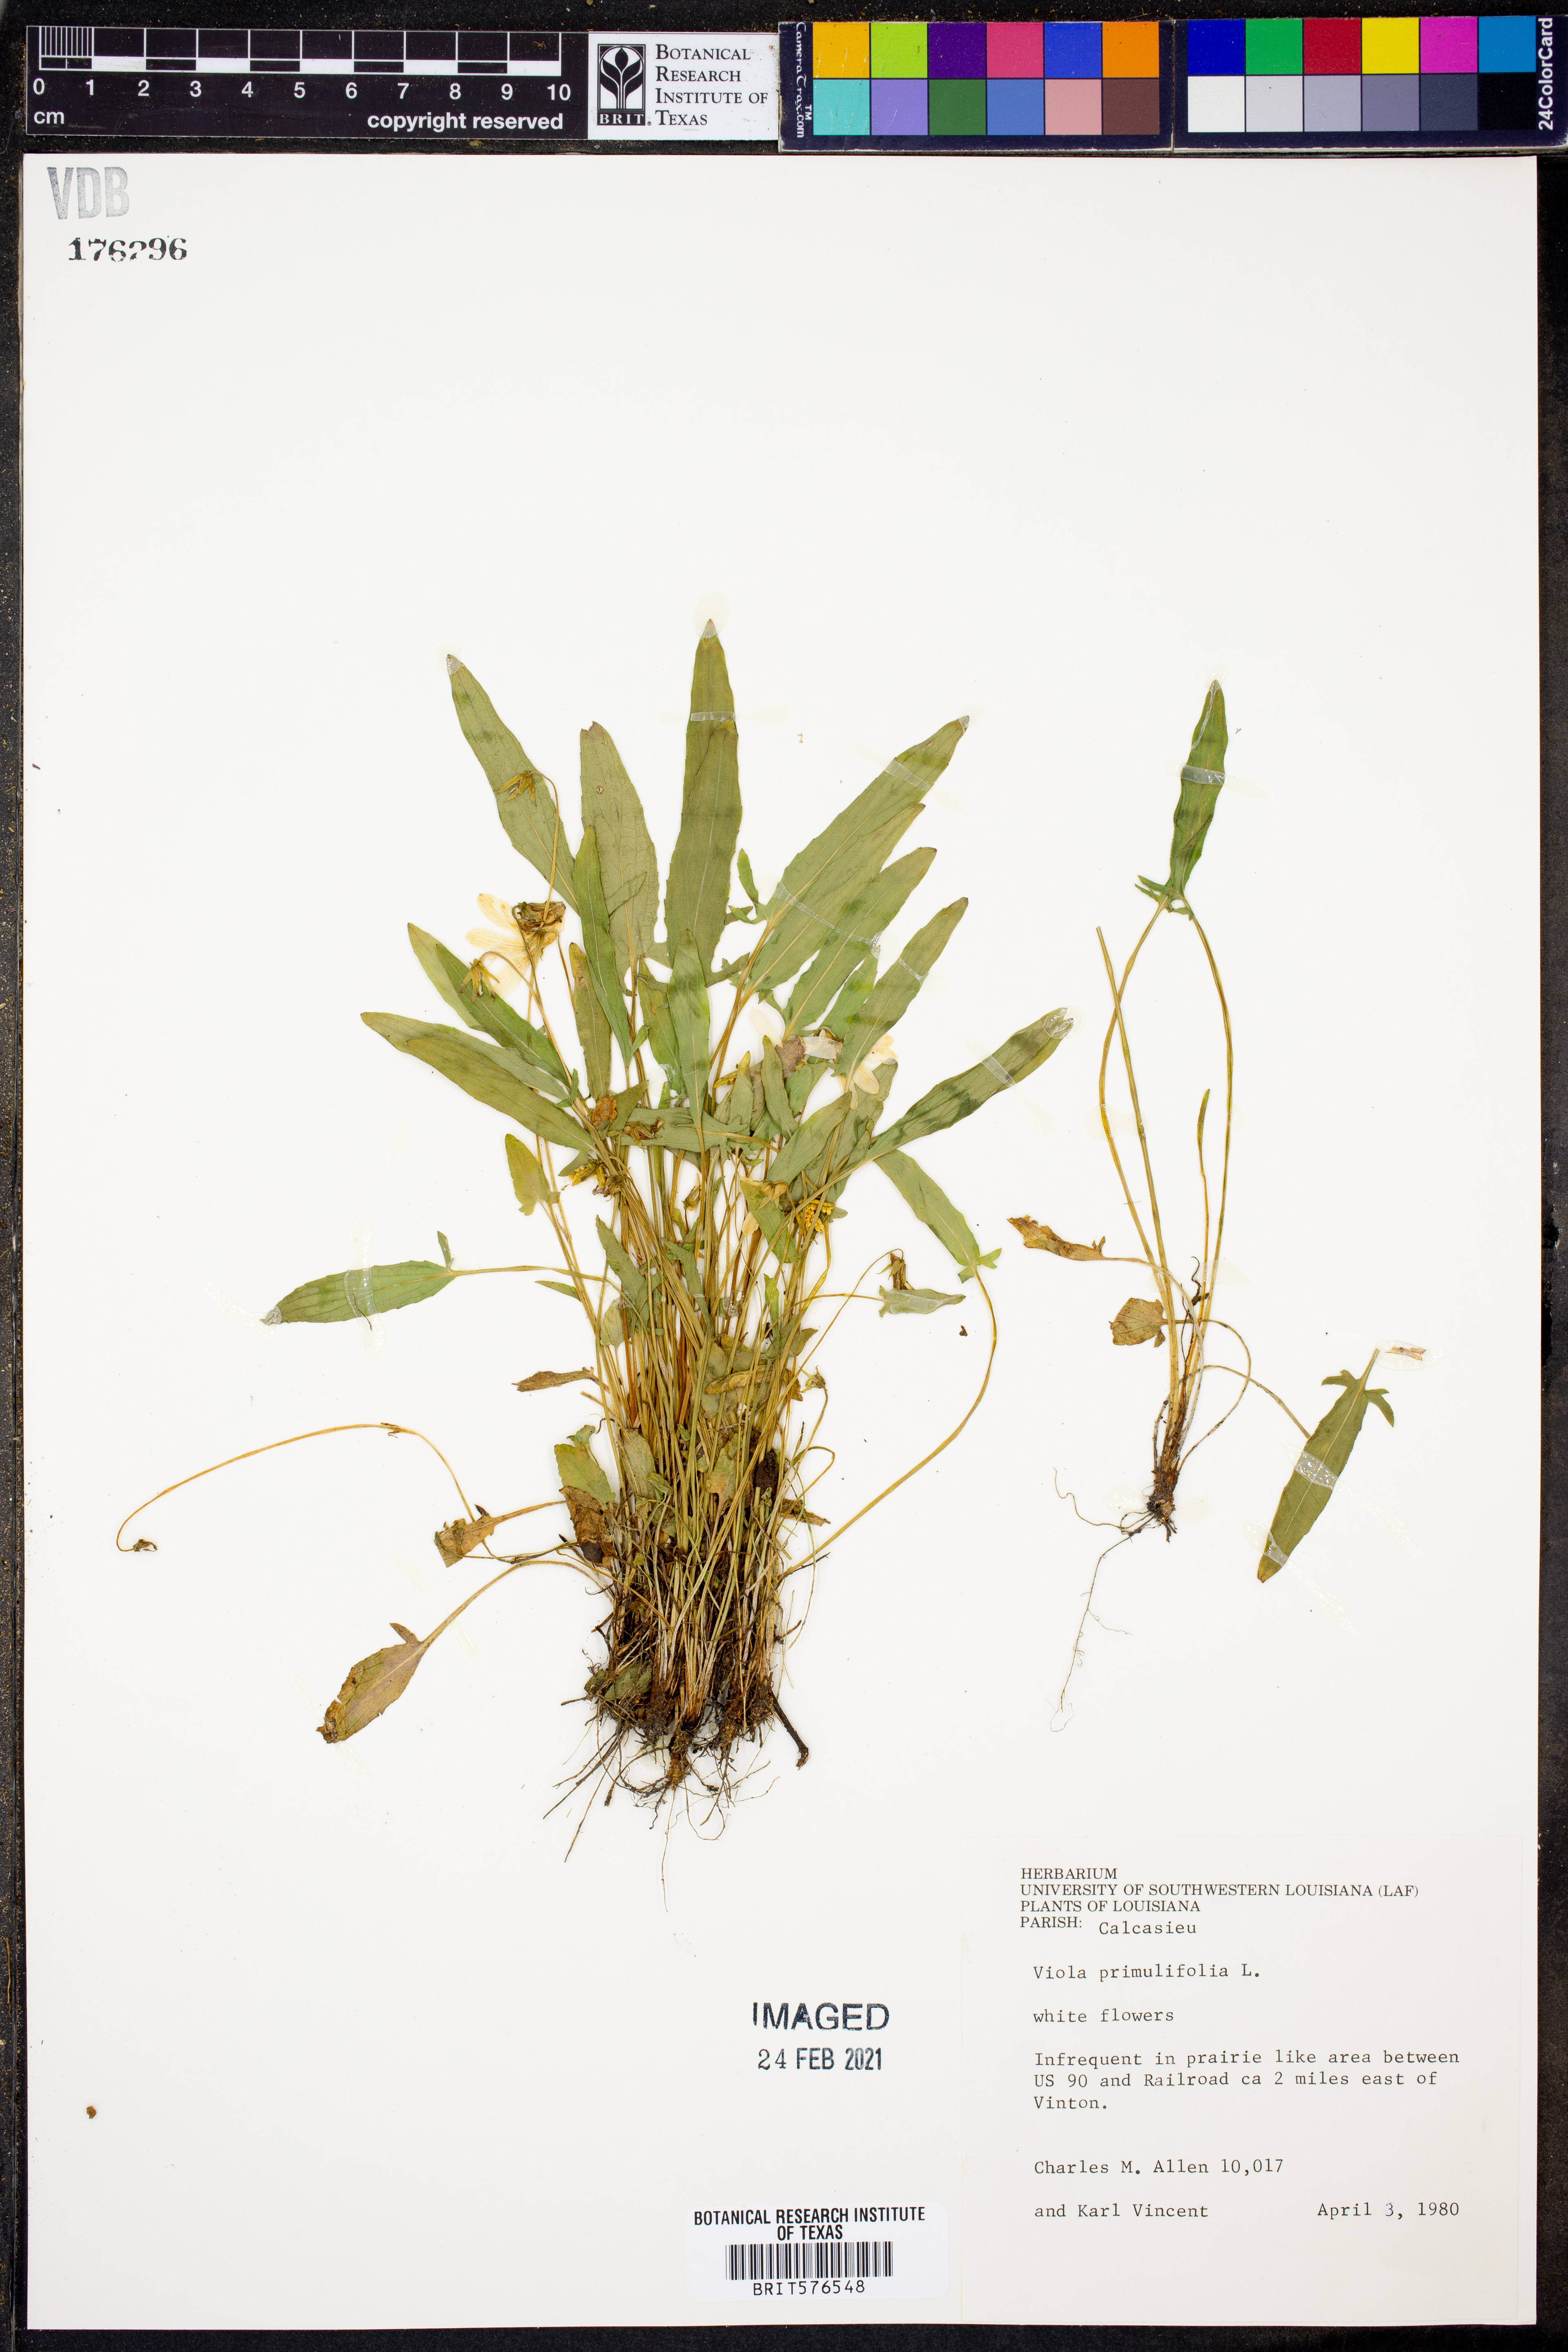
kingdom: Plantae
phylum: Tracheophyta
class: Magnoliopsida
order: Malpighiales
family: Violaceae
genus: Viola
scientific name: Viola primulifolia
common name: Primrose-leaf violet
